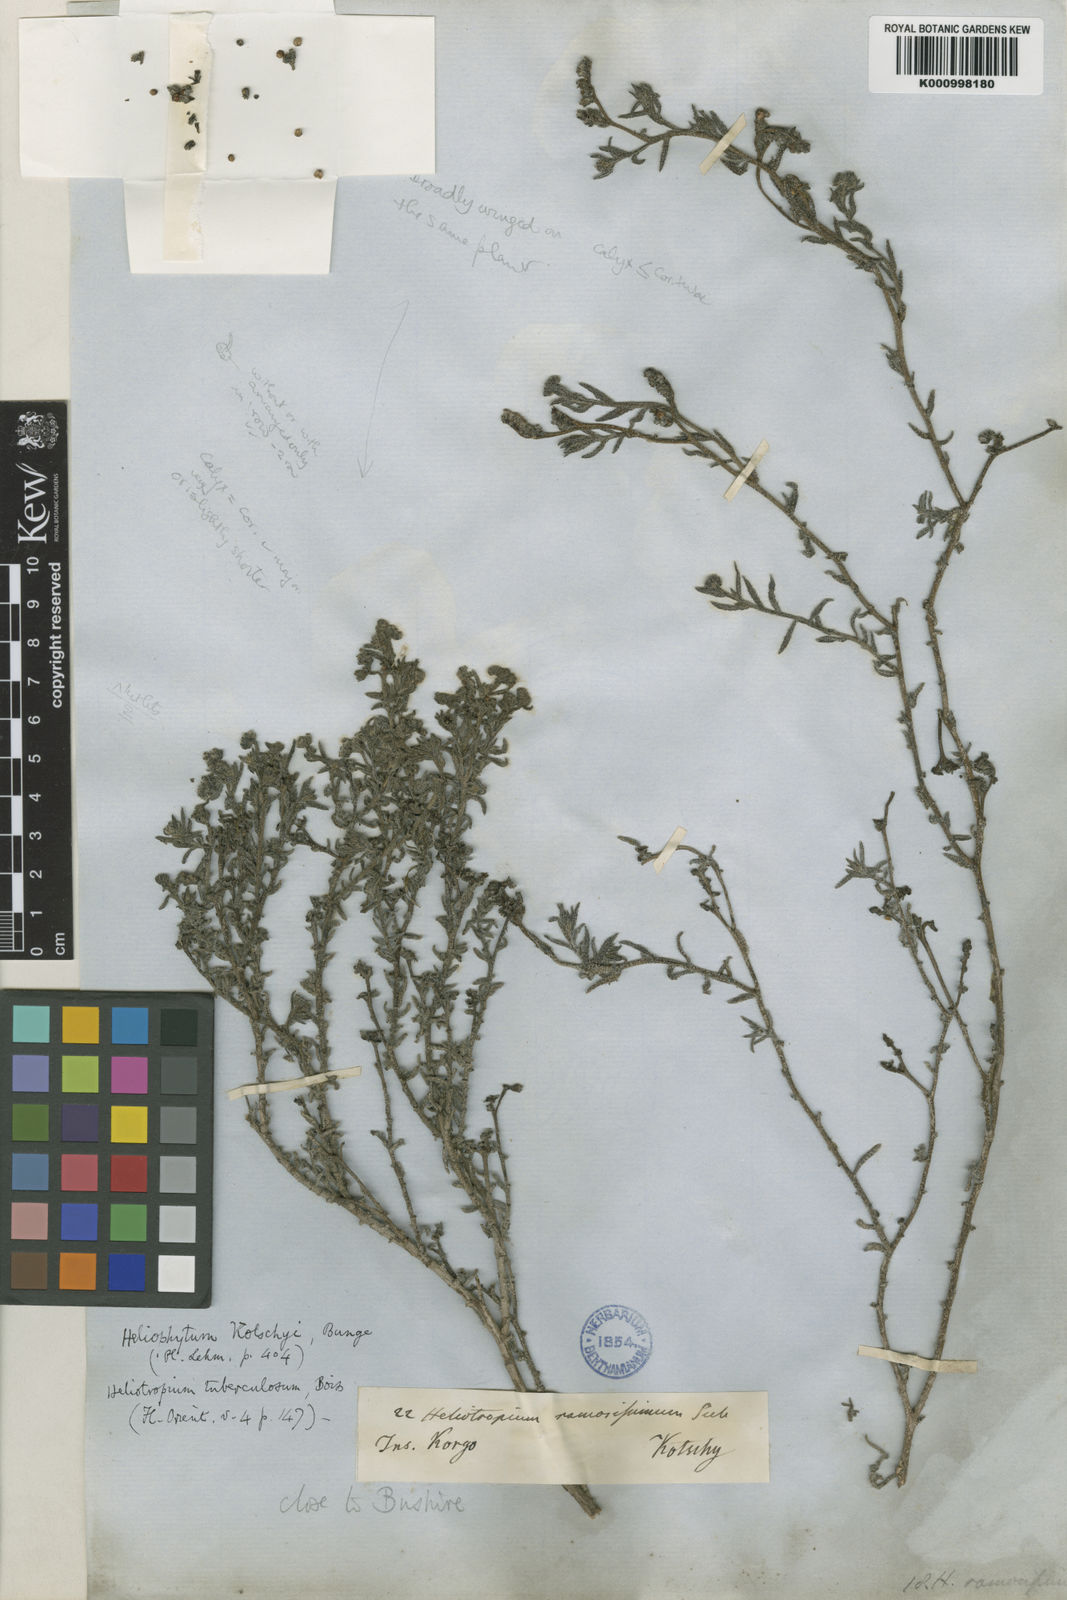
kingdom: Plantae
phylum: Tracheophyta
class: Magnoliopsida
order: Boraginales
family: Heliotropiaceae
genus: Heliotropium
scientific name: Heliotropium bacciferum
